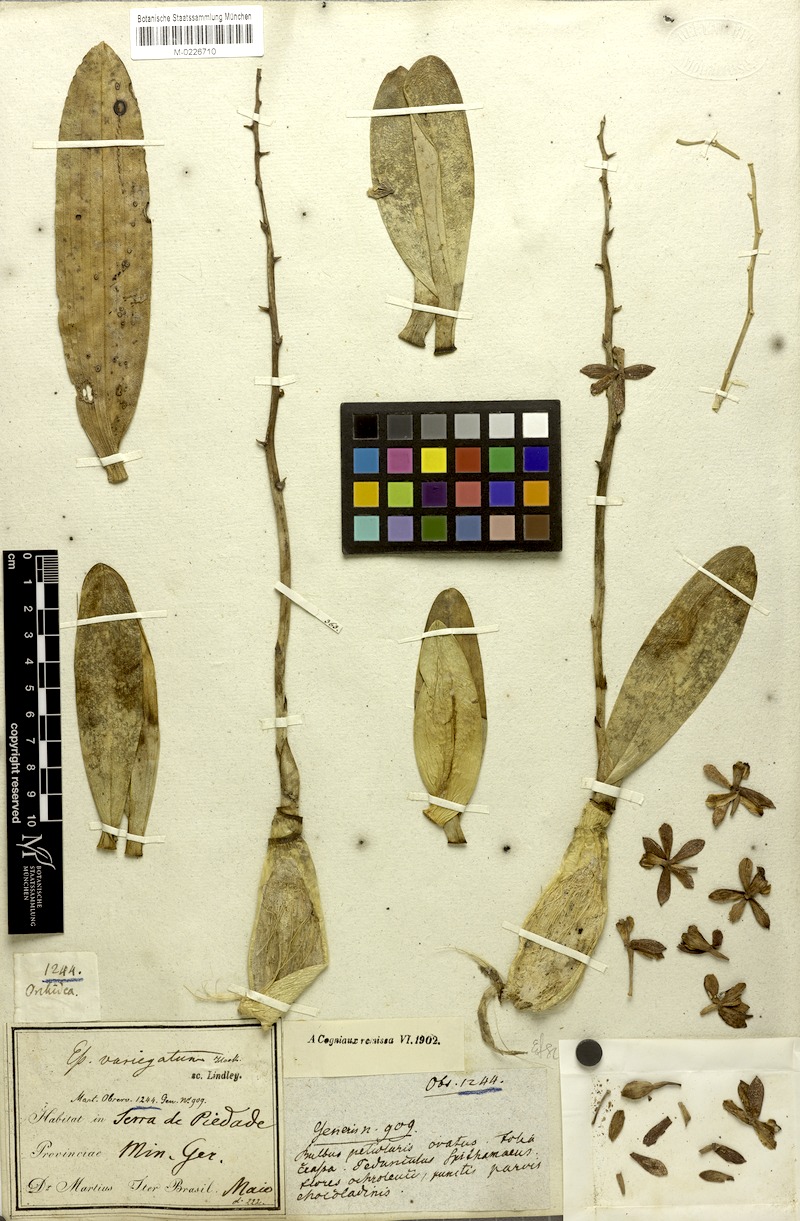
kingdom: Plantae
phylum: Tracheophyta
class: Liliopsida
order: Asparagales
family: Orchidaceae
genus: Prosthechea
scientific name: Prosthechea crassilabia
